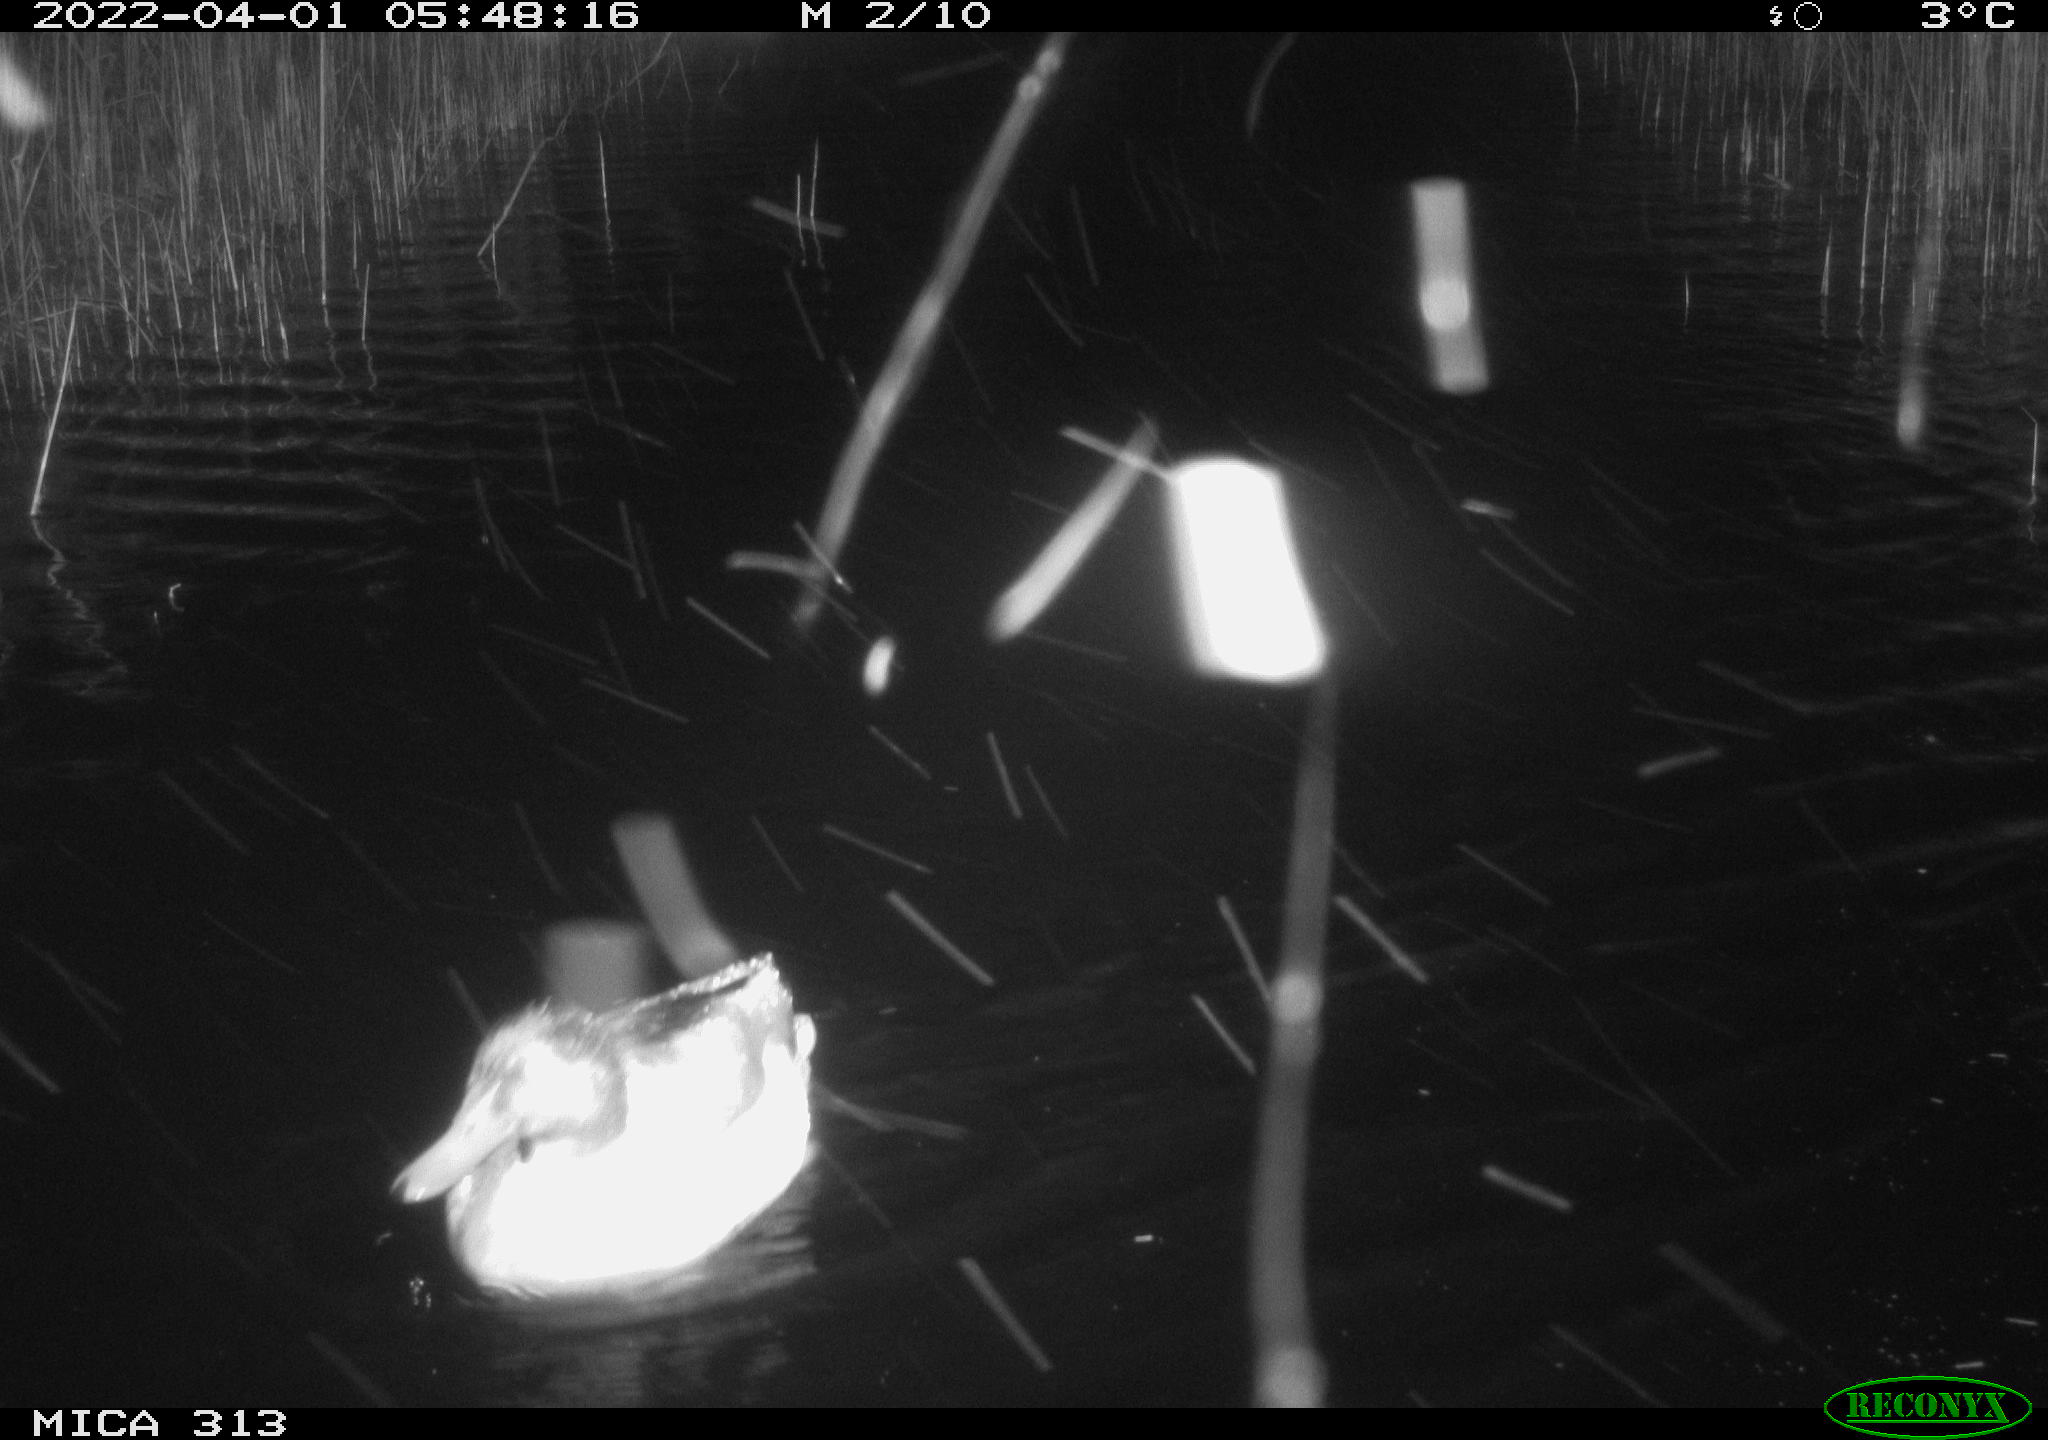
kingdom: Animalia
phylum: Chordata
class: Aves
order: Anseriformes
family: Anatidae
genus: Anas
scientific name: Anas platyrhynchos
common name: Mallard
